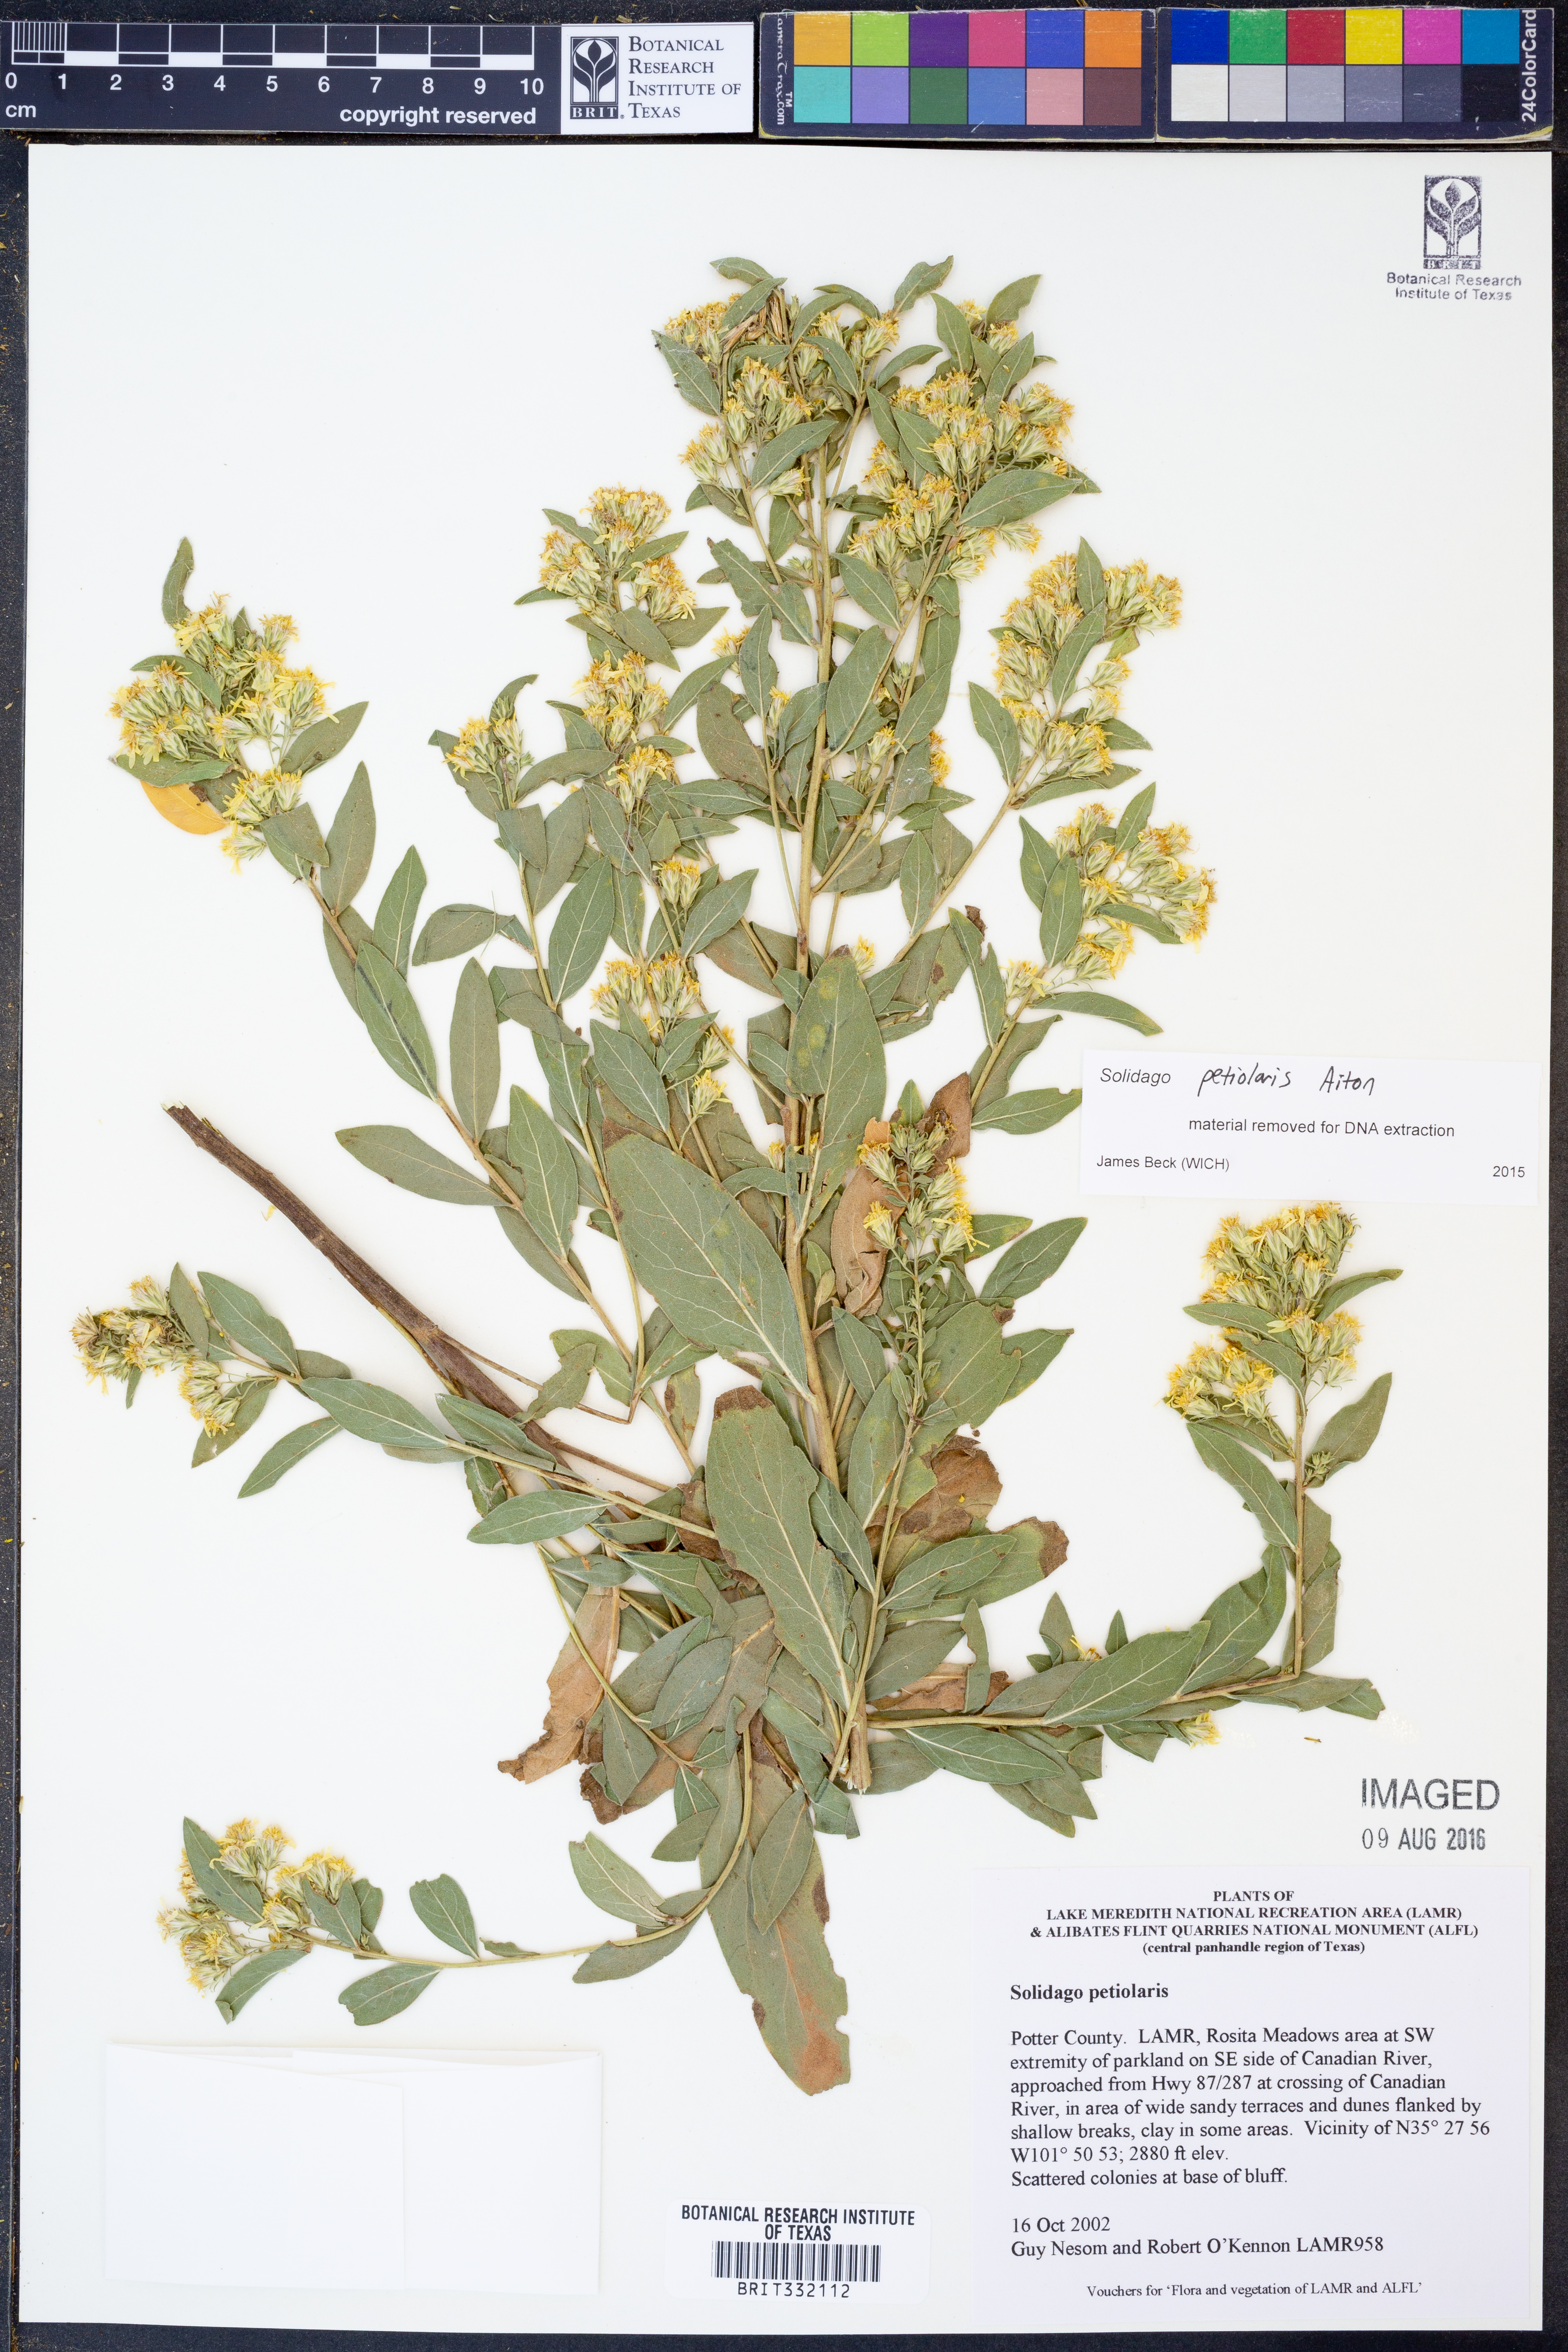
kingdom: Plantae
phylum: Tracheophyta
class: Magnoliopsida
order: Asterales
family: Asteraceae
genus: Solidago
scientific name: Solidago petiolaris
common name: Downy ragged goldenrod
